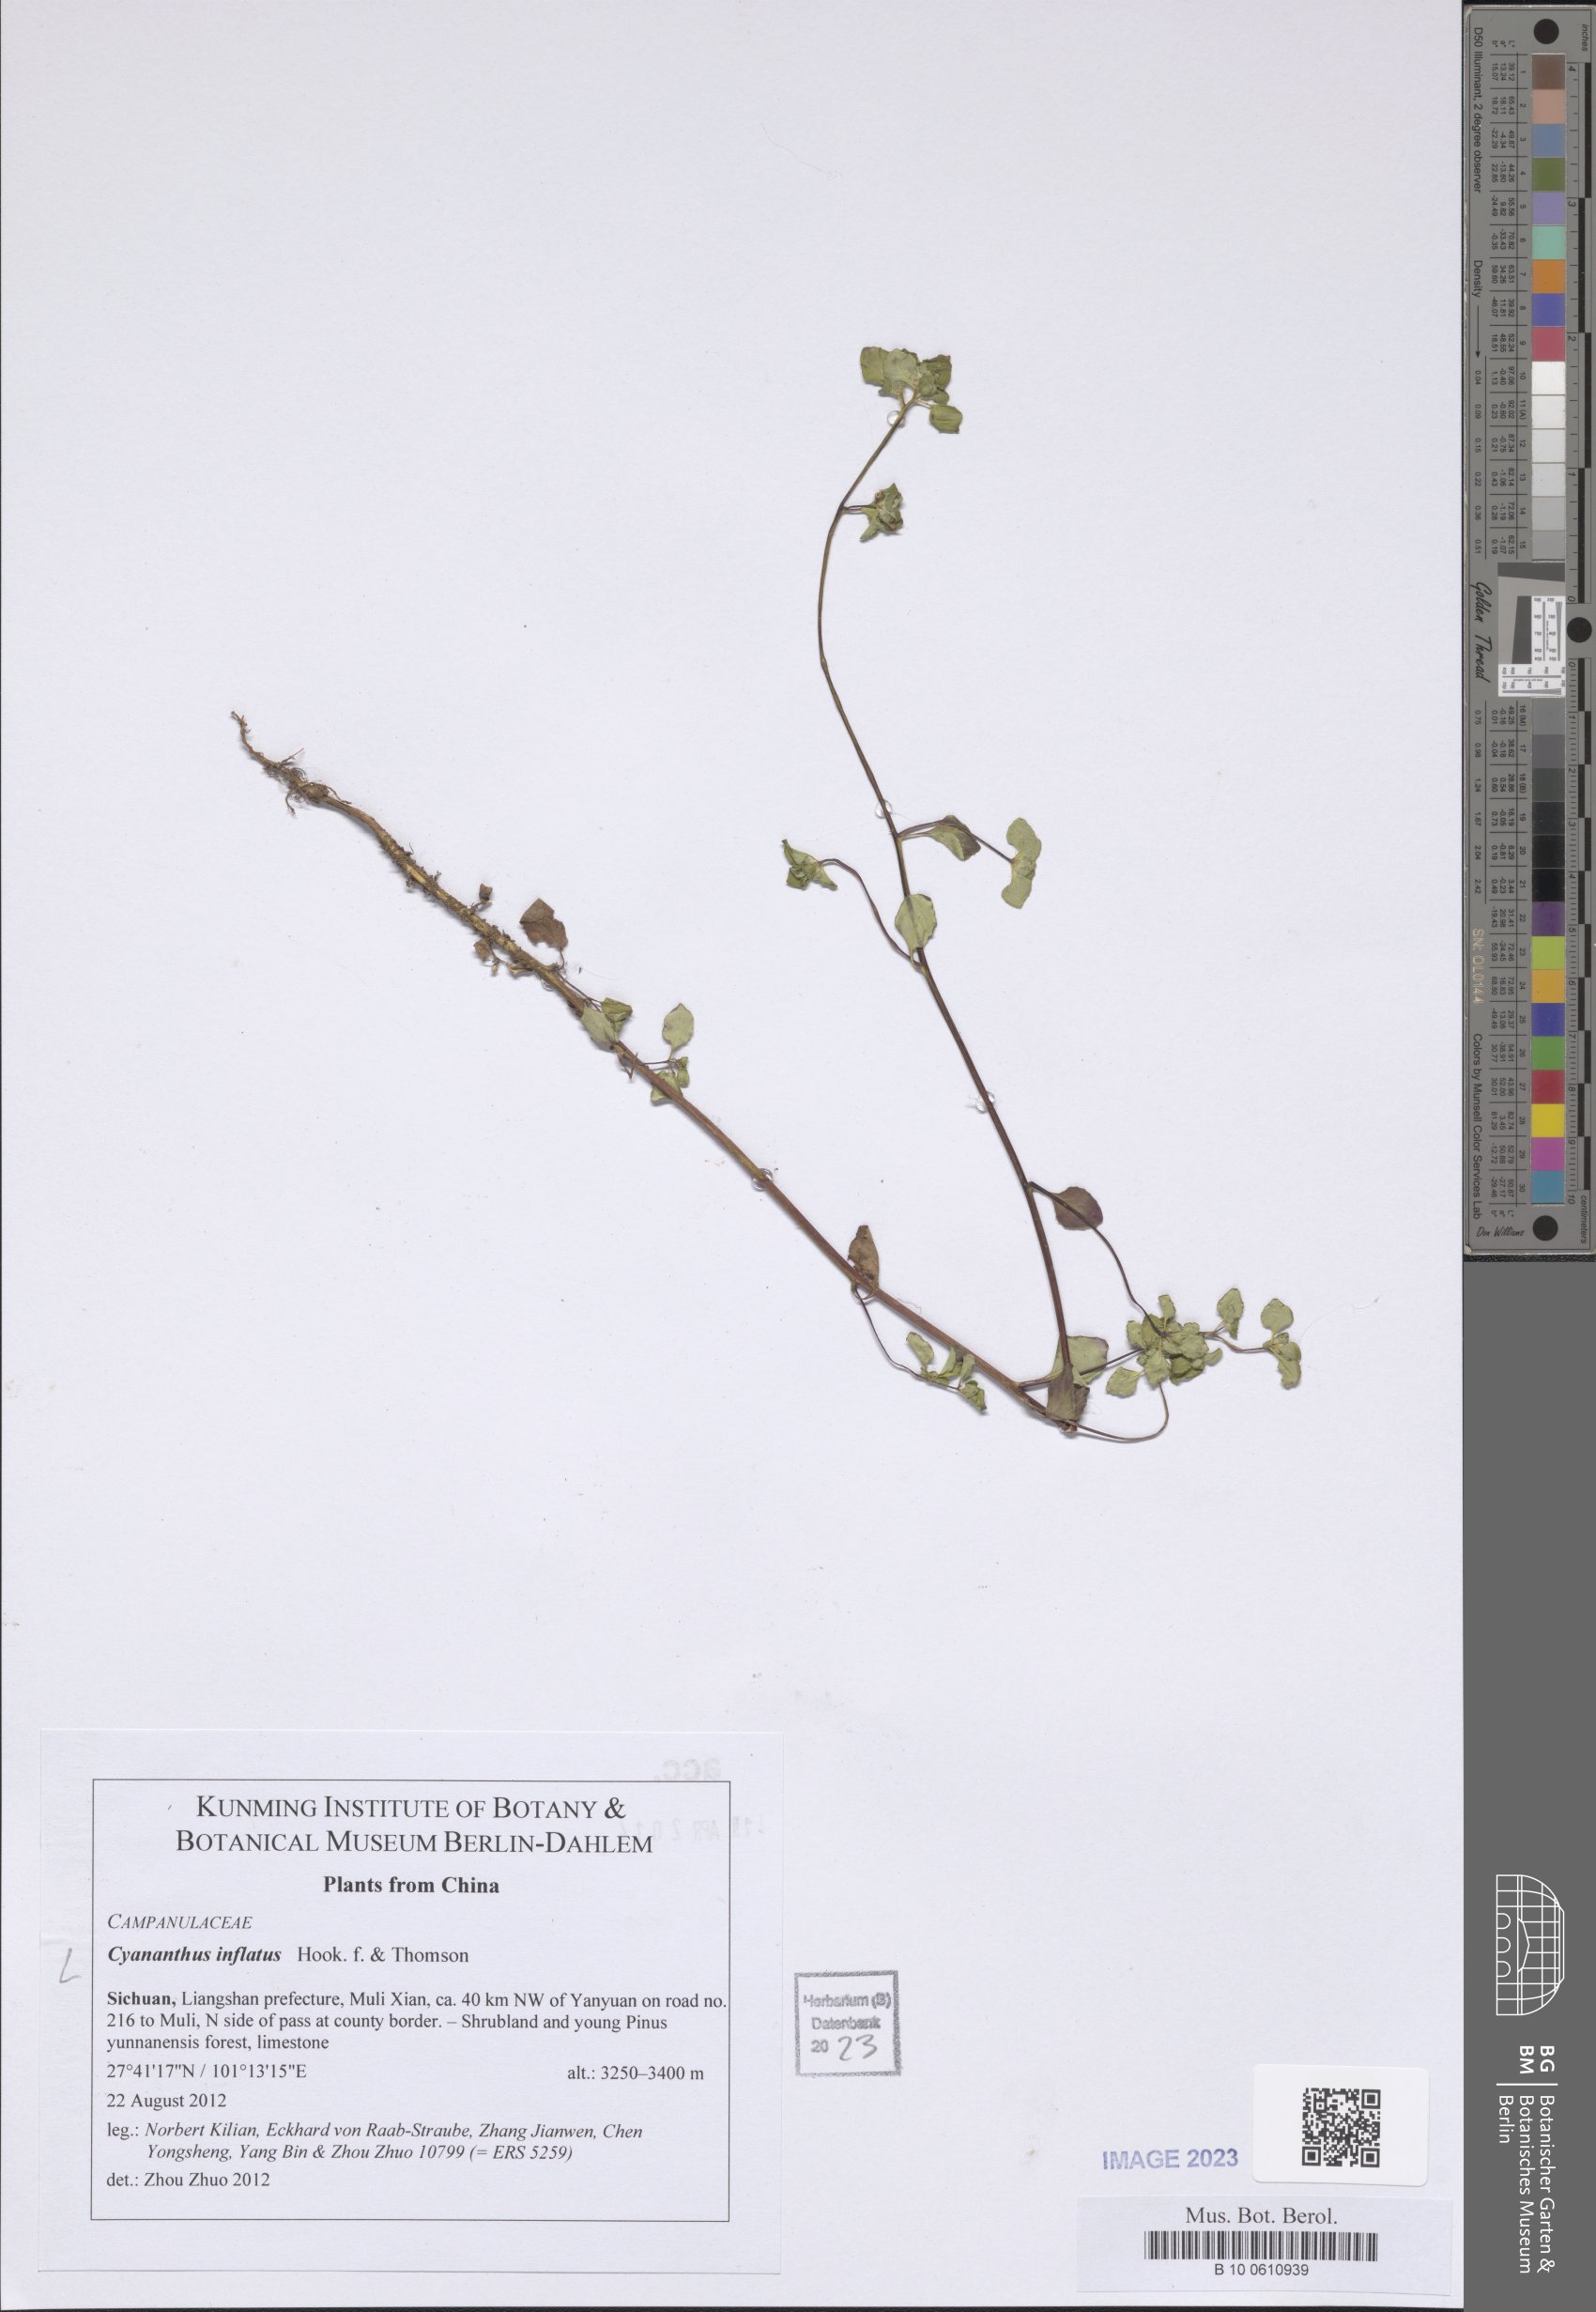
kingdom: Plantae
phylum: Tracheophyta
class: Magnoliopsida
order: Asterales
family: Campanulaceae
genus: Cyananthus
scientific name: Cyananthus inflatus
